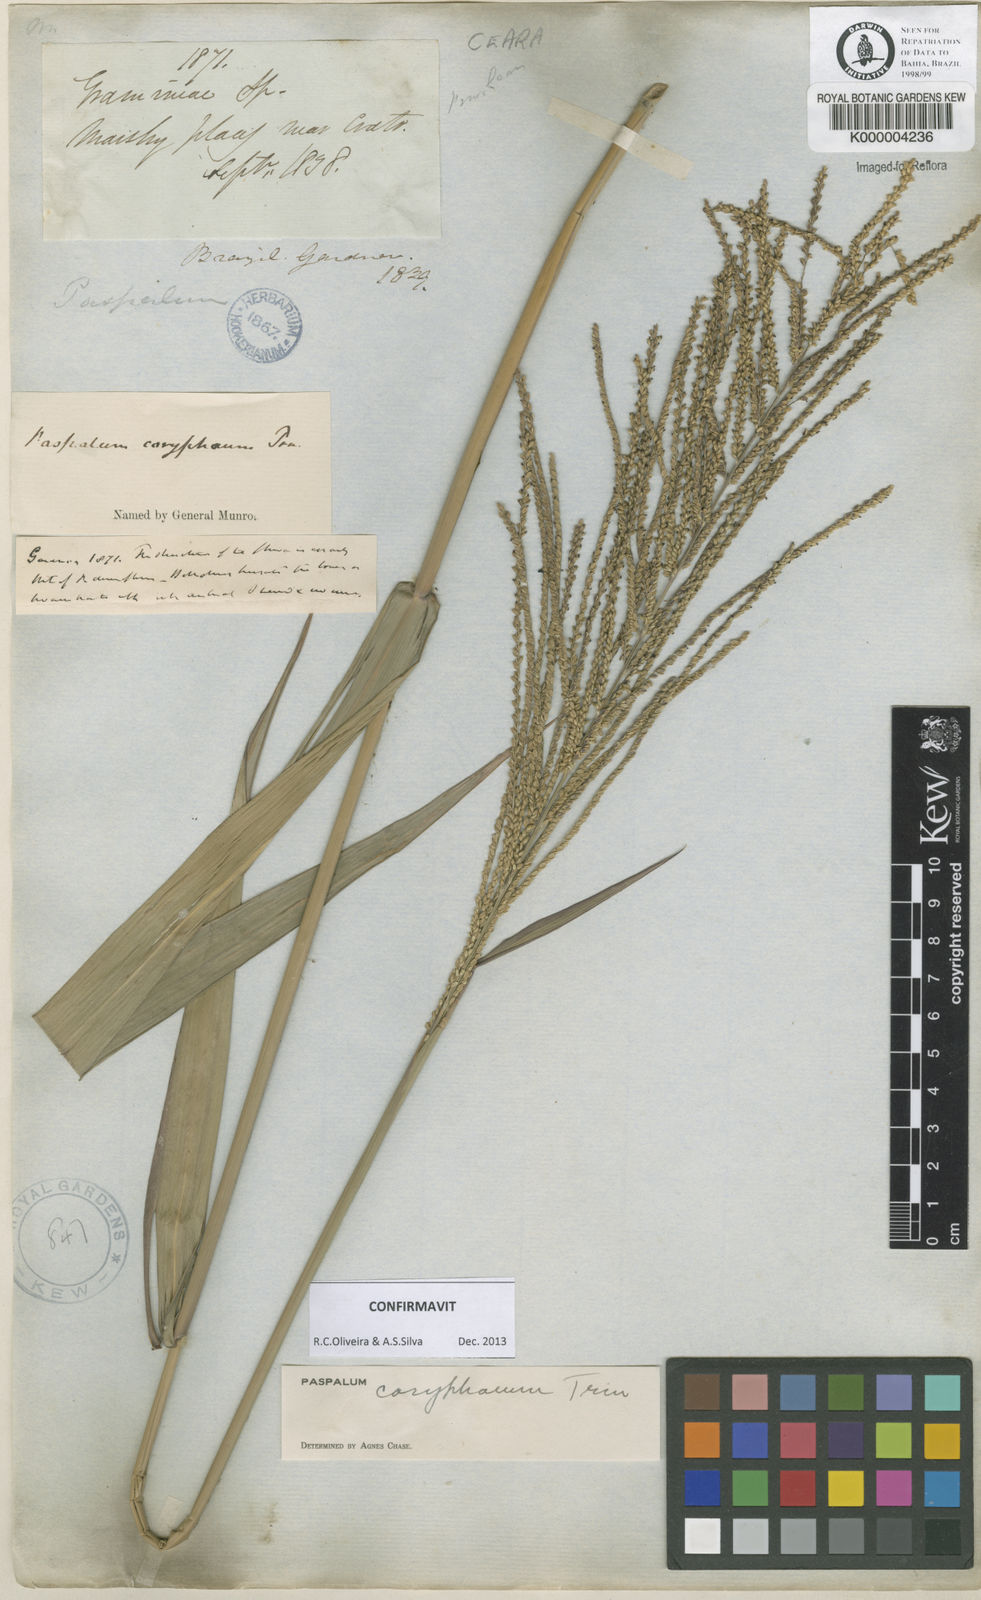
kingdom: Plantae
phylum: Tracheophyta
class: Liliopsida
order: Poales
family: Poaceae
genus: Paspalum
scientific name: Paspalum coryphaeum
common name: Emperor crowngrass
